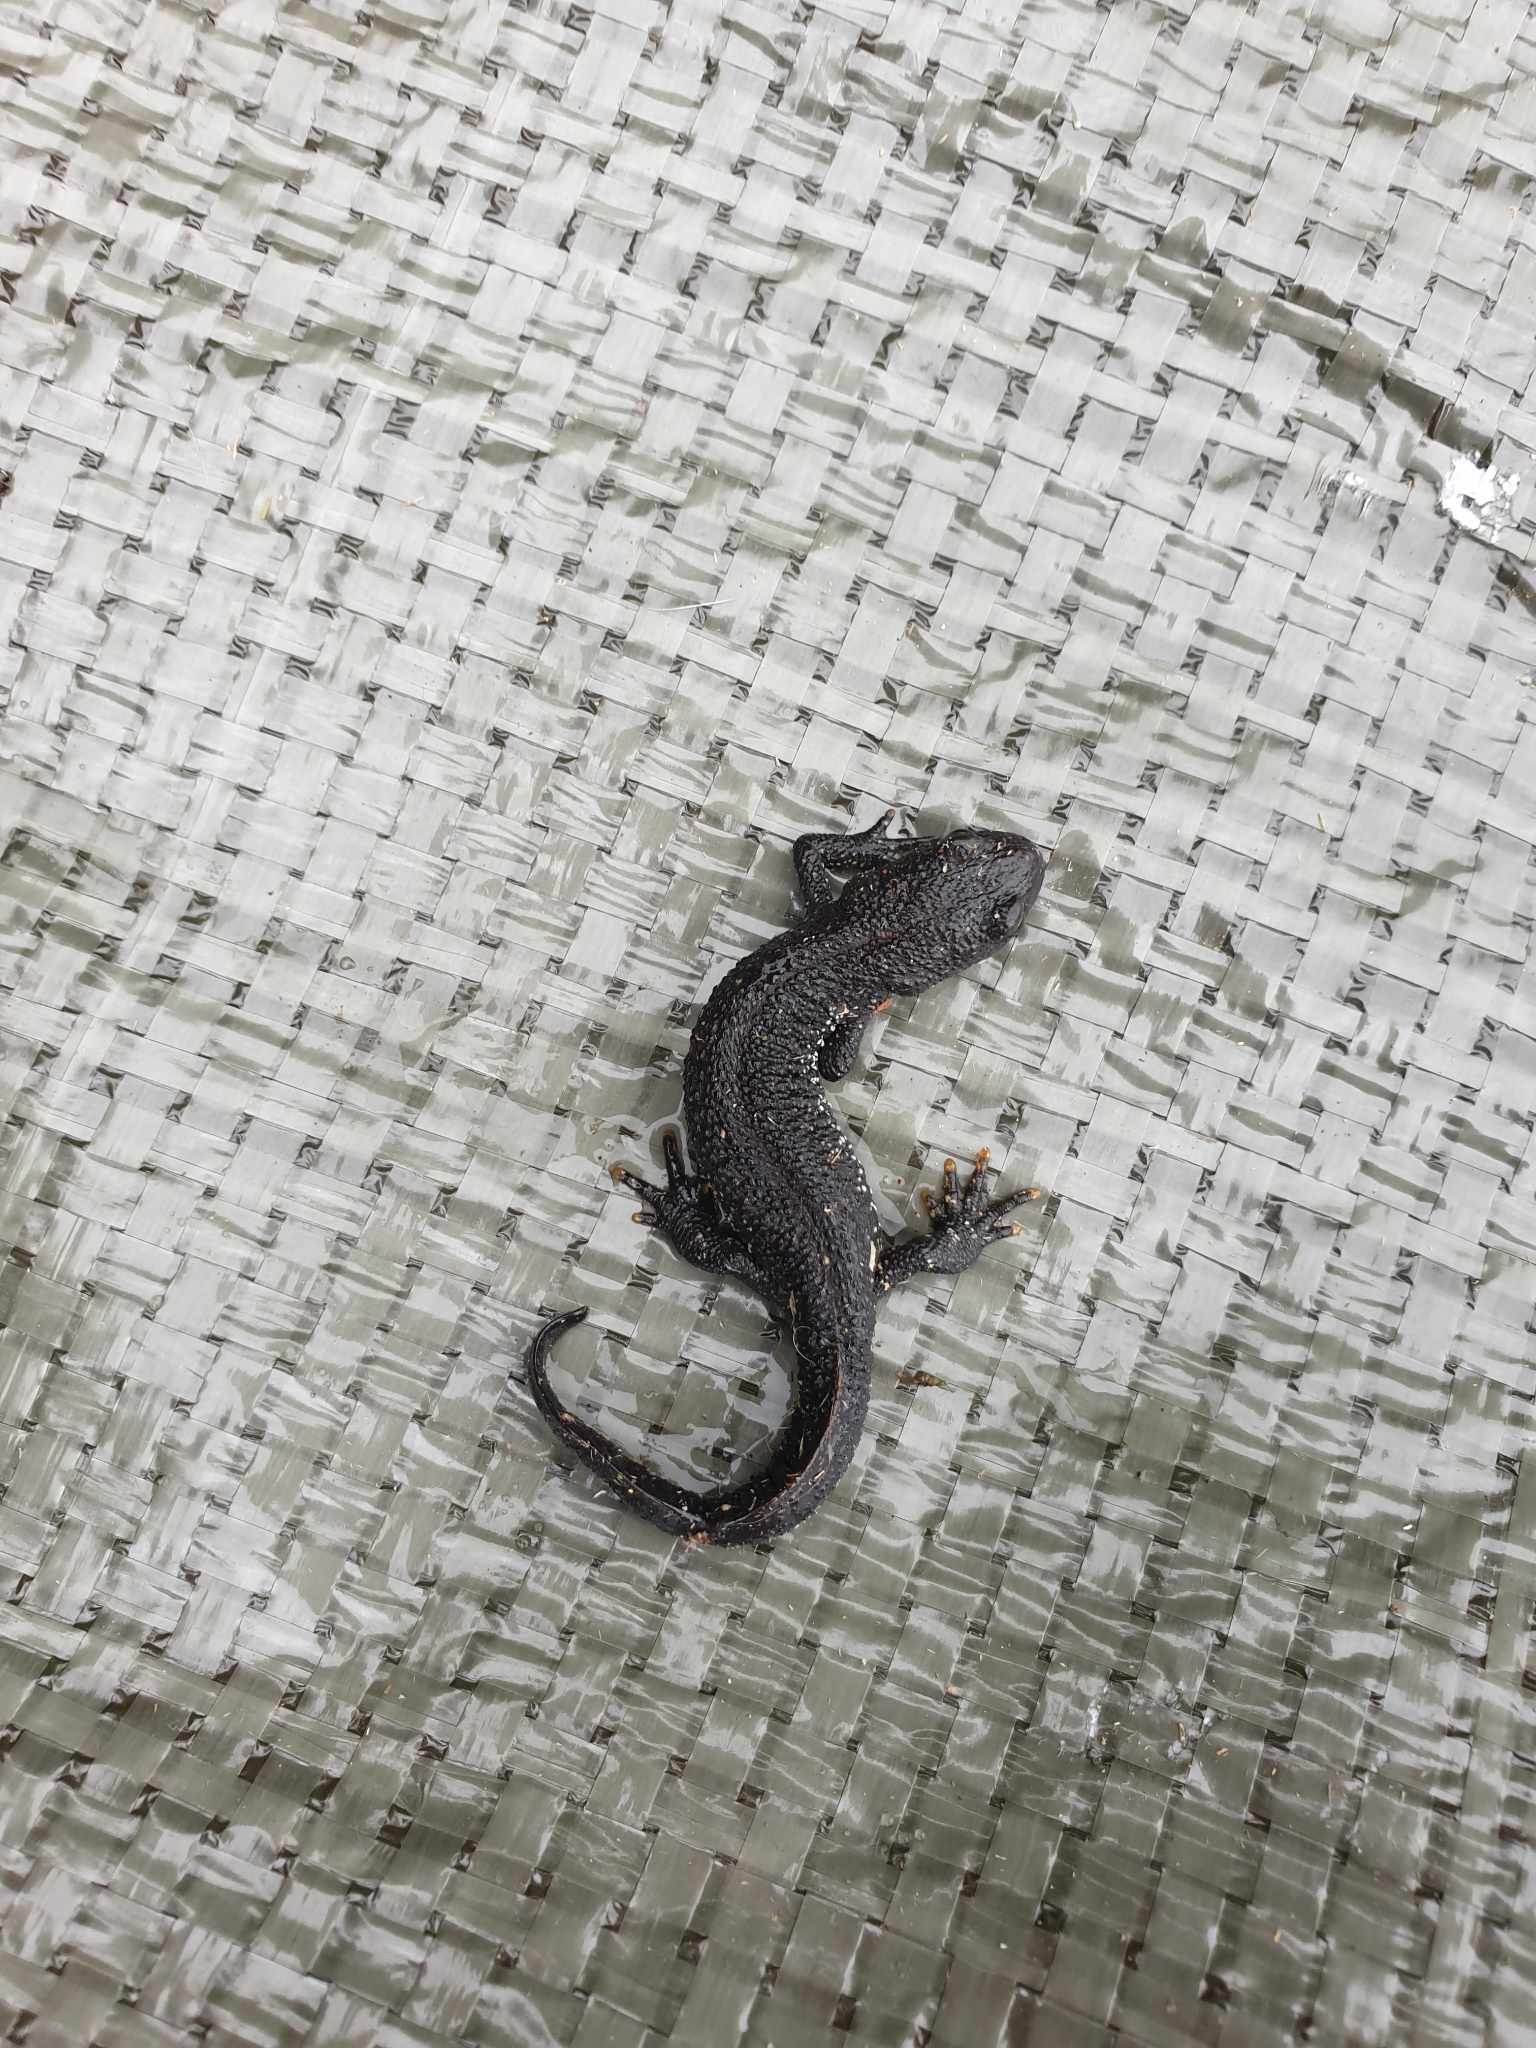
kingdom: Animalia
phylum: Chordata
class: Amphibia
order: Caudata
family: Salamandridae
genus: Triturus
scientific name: Triturus cristatus
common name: Stor vandsalamander
